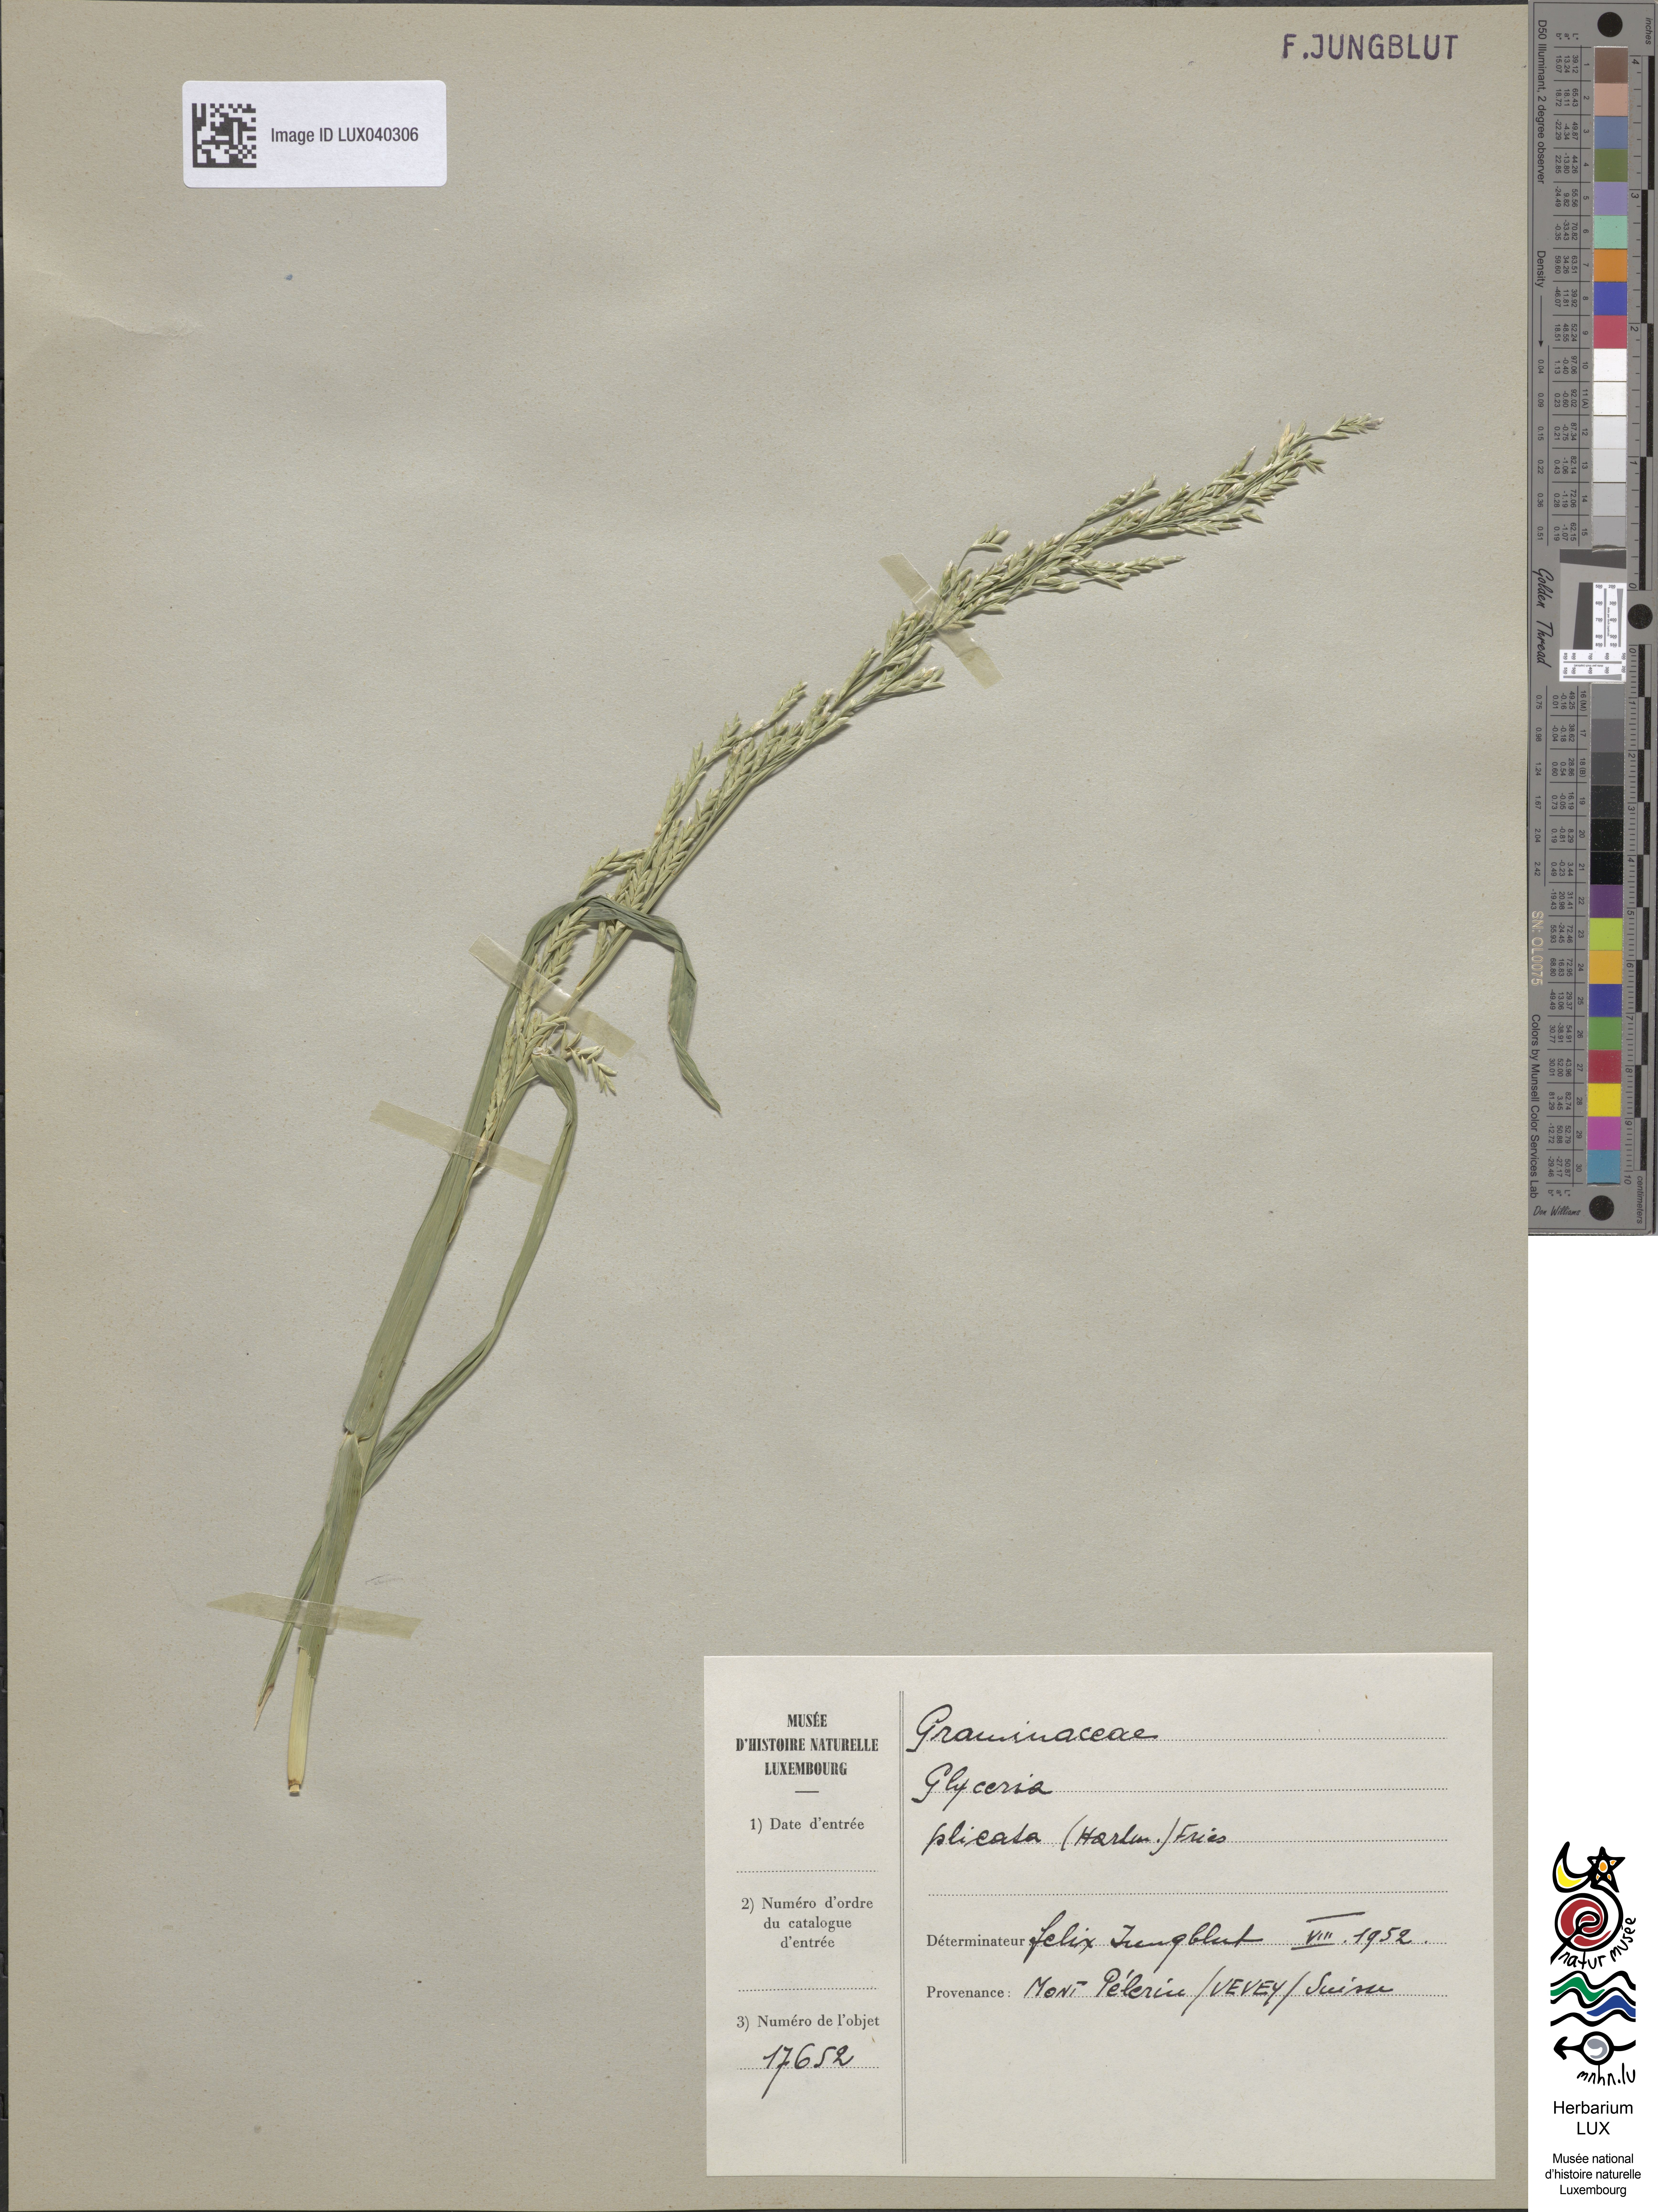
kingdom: Plantae
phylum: Tracheophyta
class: Liliopsida
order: Poales
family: Poaceae
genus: Glyceria
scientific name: Glyceria notata
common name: Plicate sweet-grass
